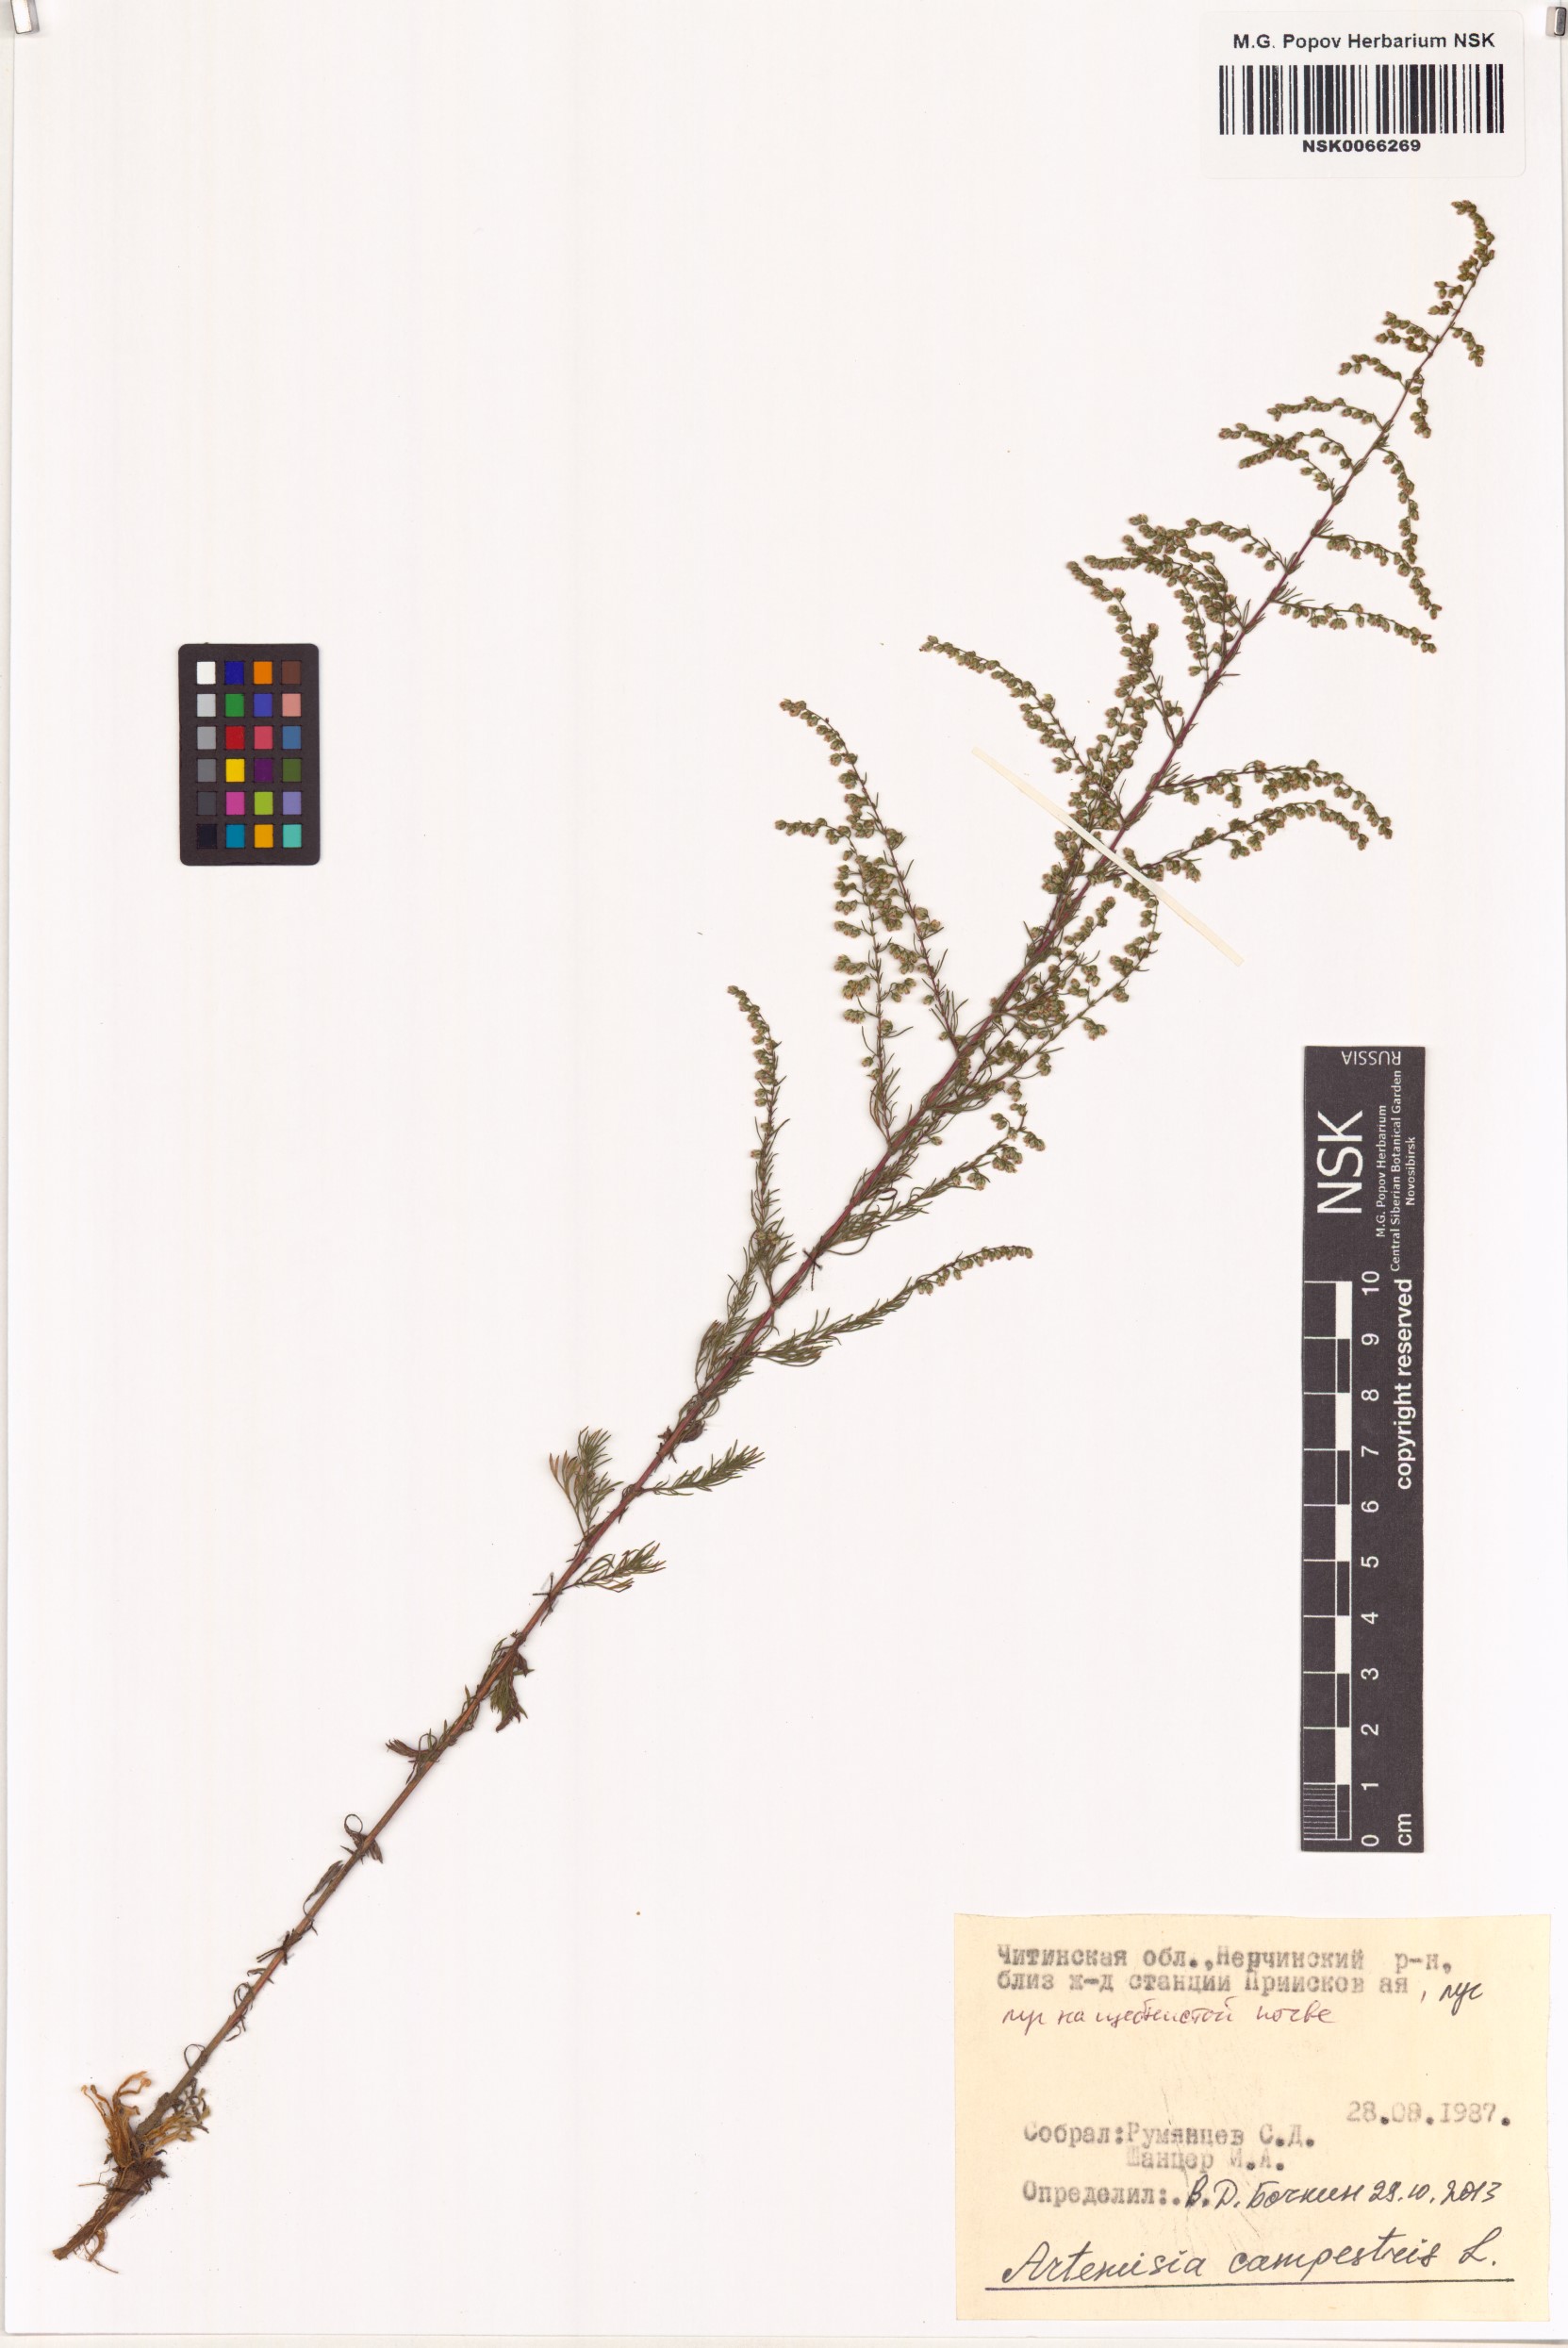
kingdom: Plantae
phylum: Tracheophyta
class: Magnoliopsida
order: Asterales
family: Asteraceae
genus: Artemisia
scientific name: Artemisia campestris
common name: Field wormwood
